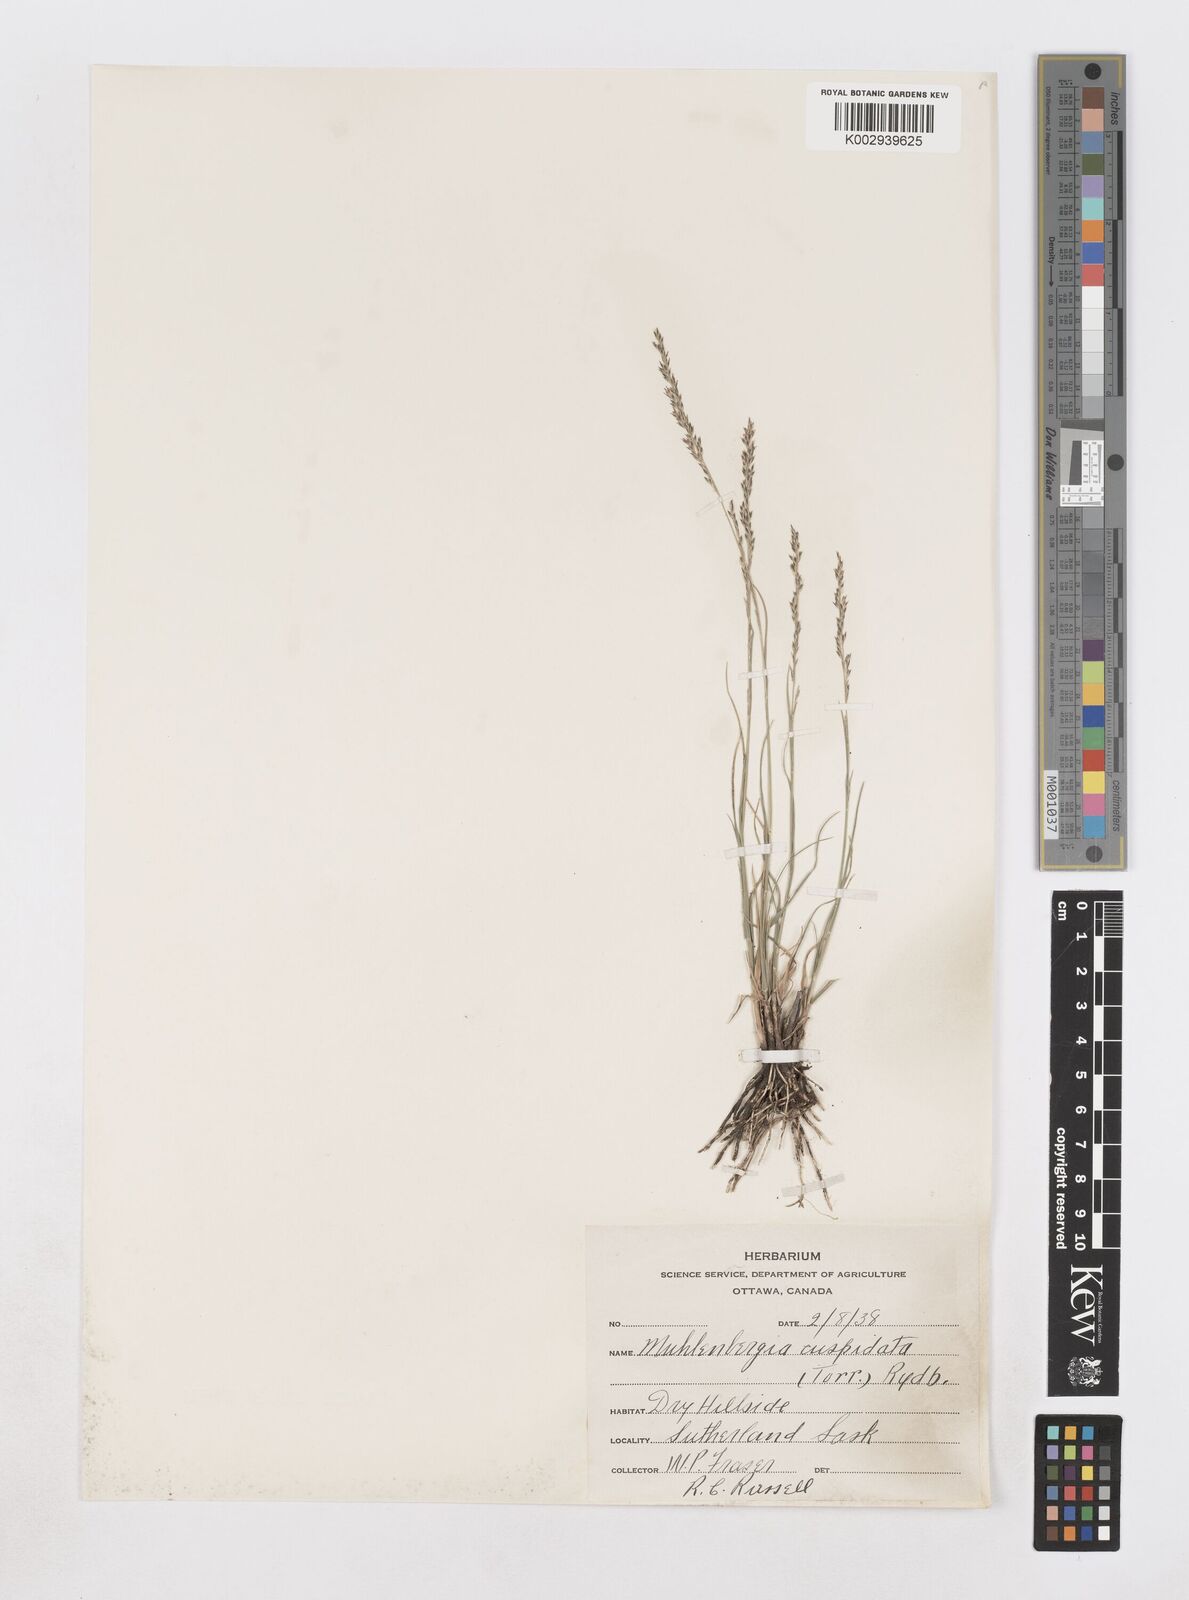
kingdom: Plantae
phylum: Tracheophyta
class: Liliopsida
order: Poales
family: Poaceae
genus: Muhlenbergia
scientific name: Muhlenbergia cuspidata
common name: Plains muhly
